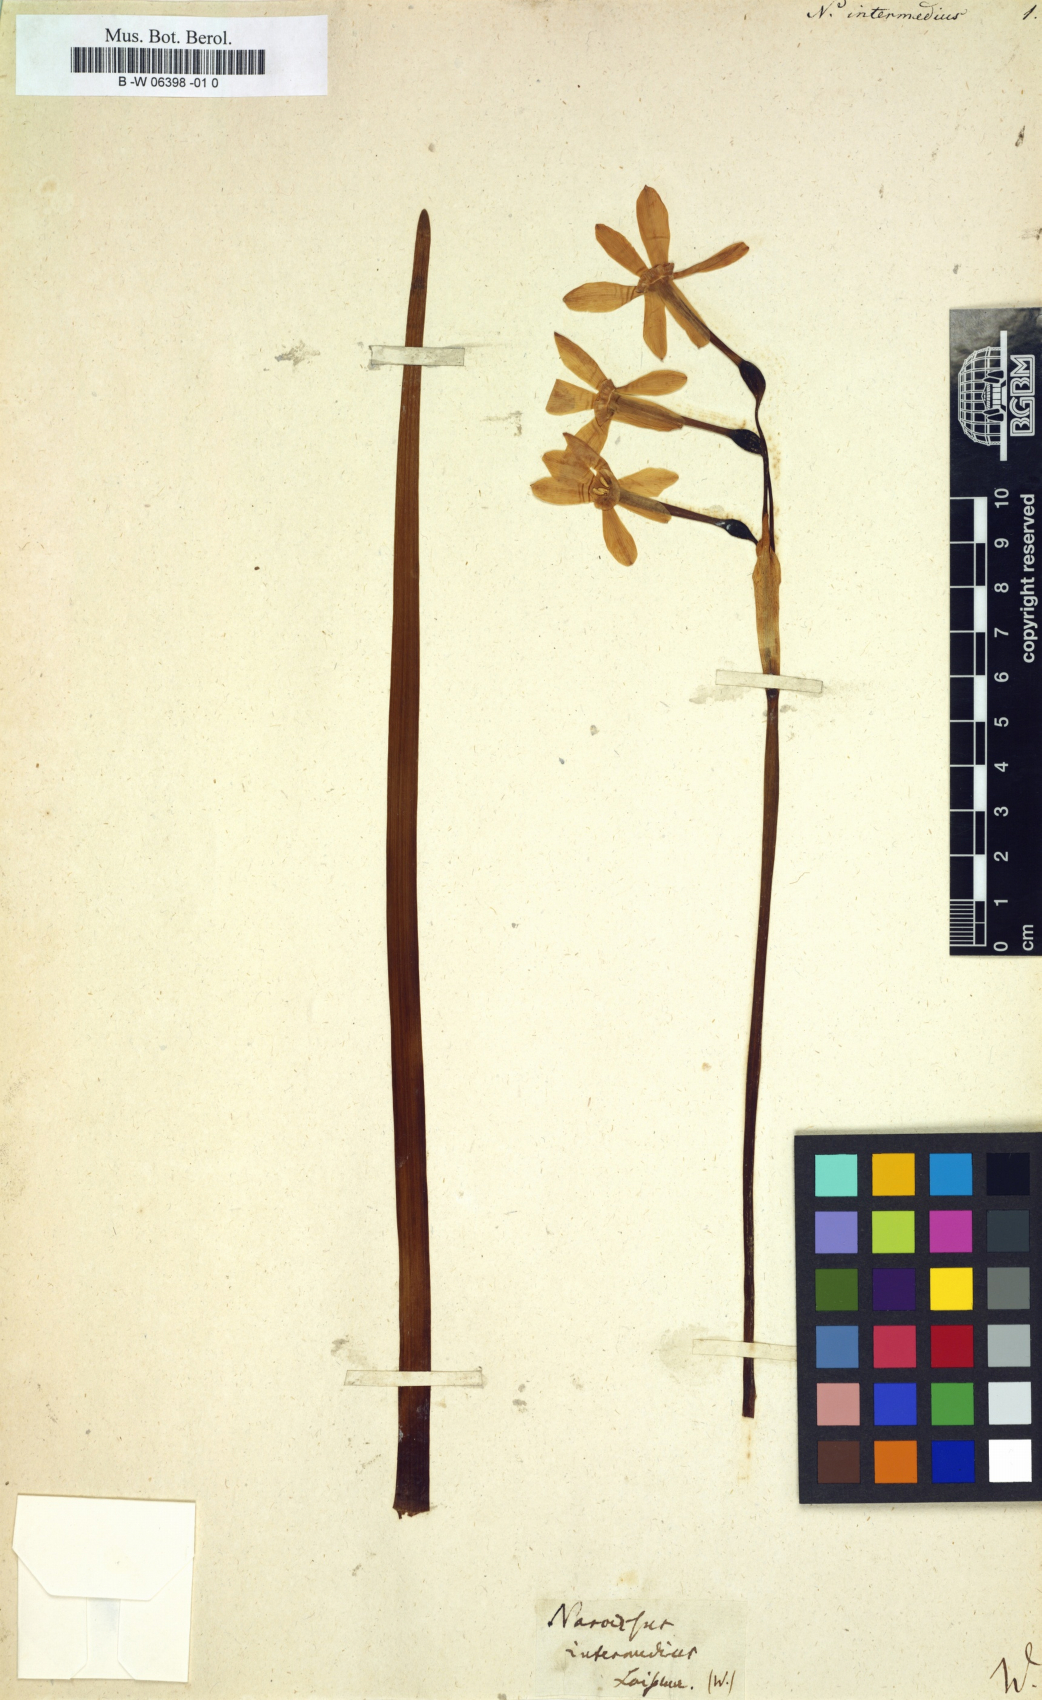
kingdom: Plantae
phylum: Tracheophyta
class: Liliopsida
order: Asparagales
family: Amaryllidaceae
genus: Narcissus
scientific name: Narcissus intermedius
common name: Hybrid daffodil
